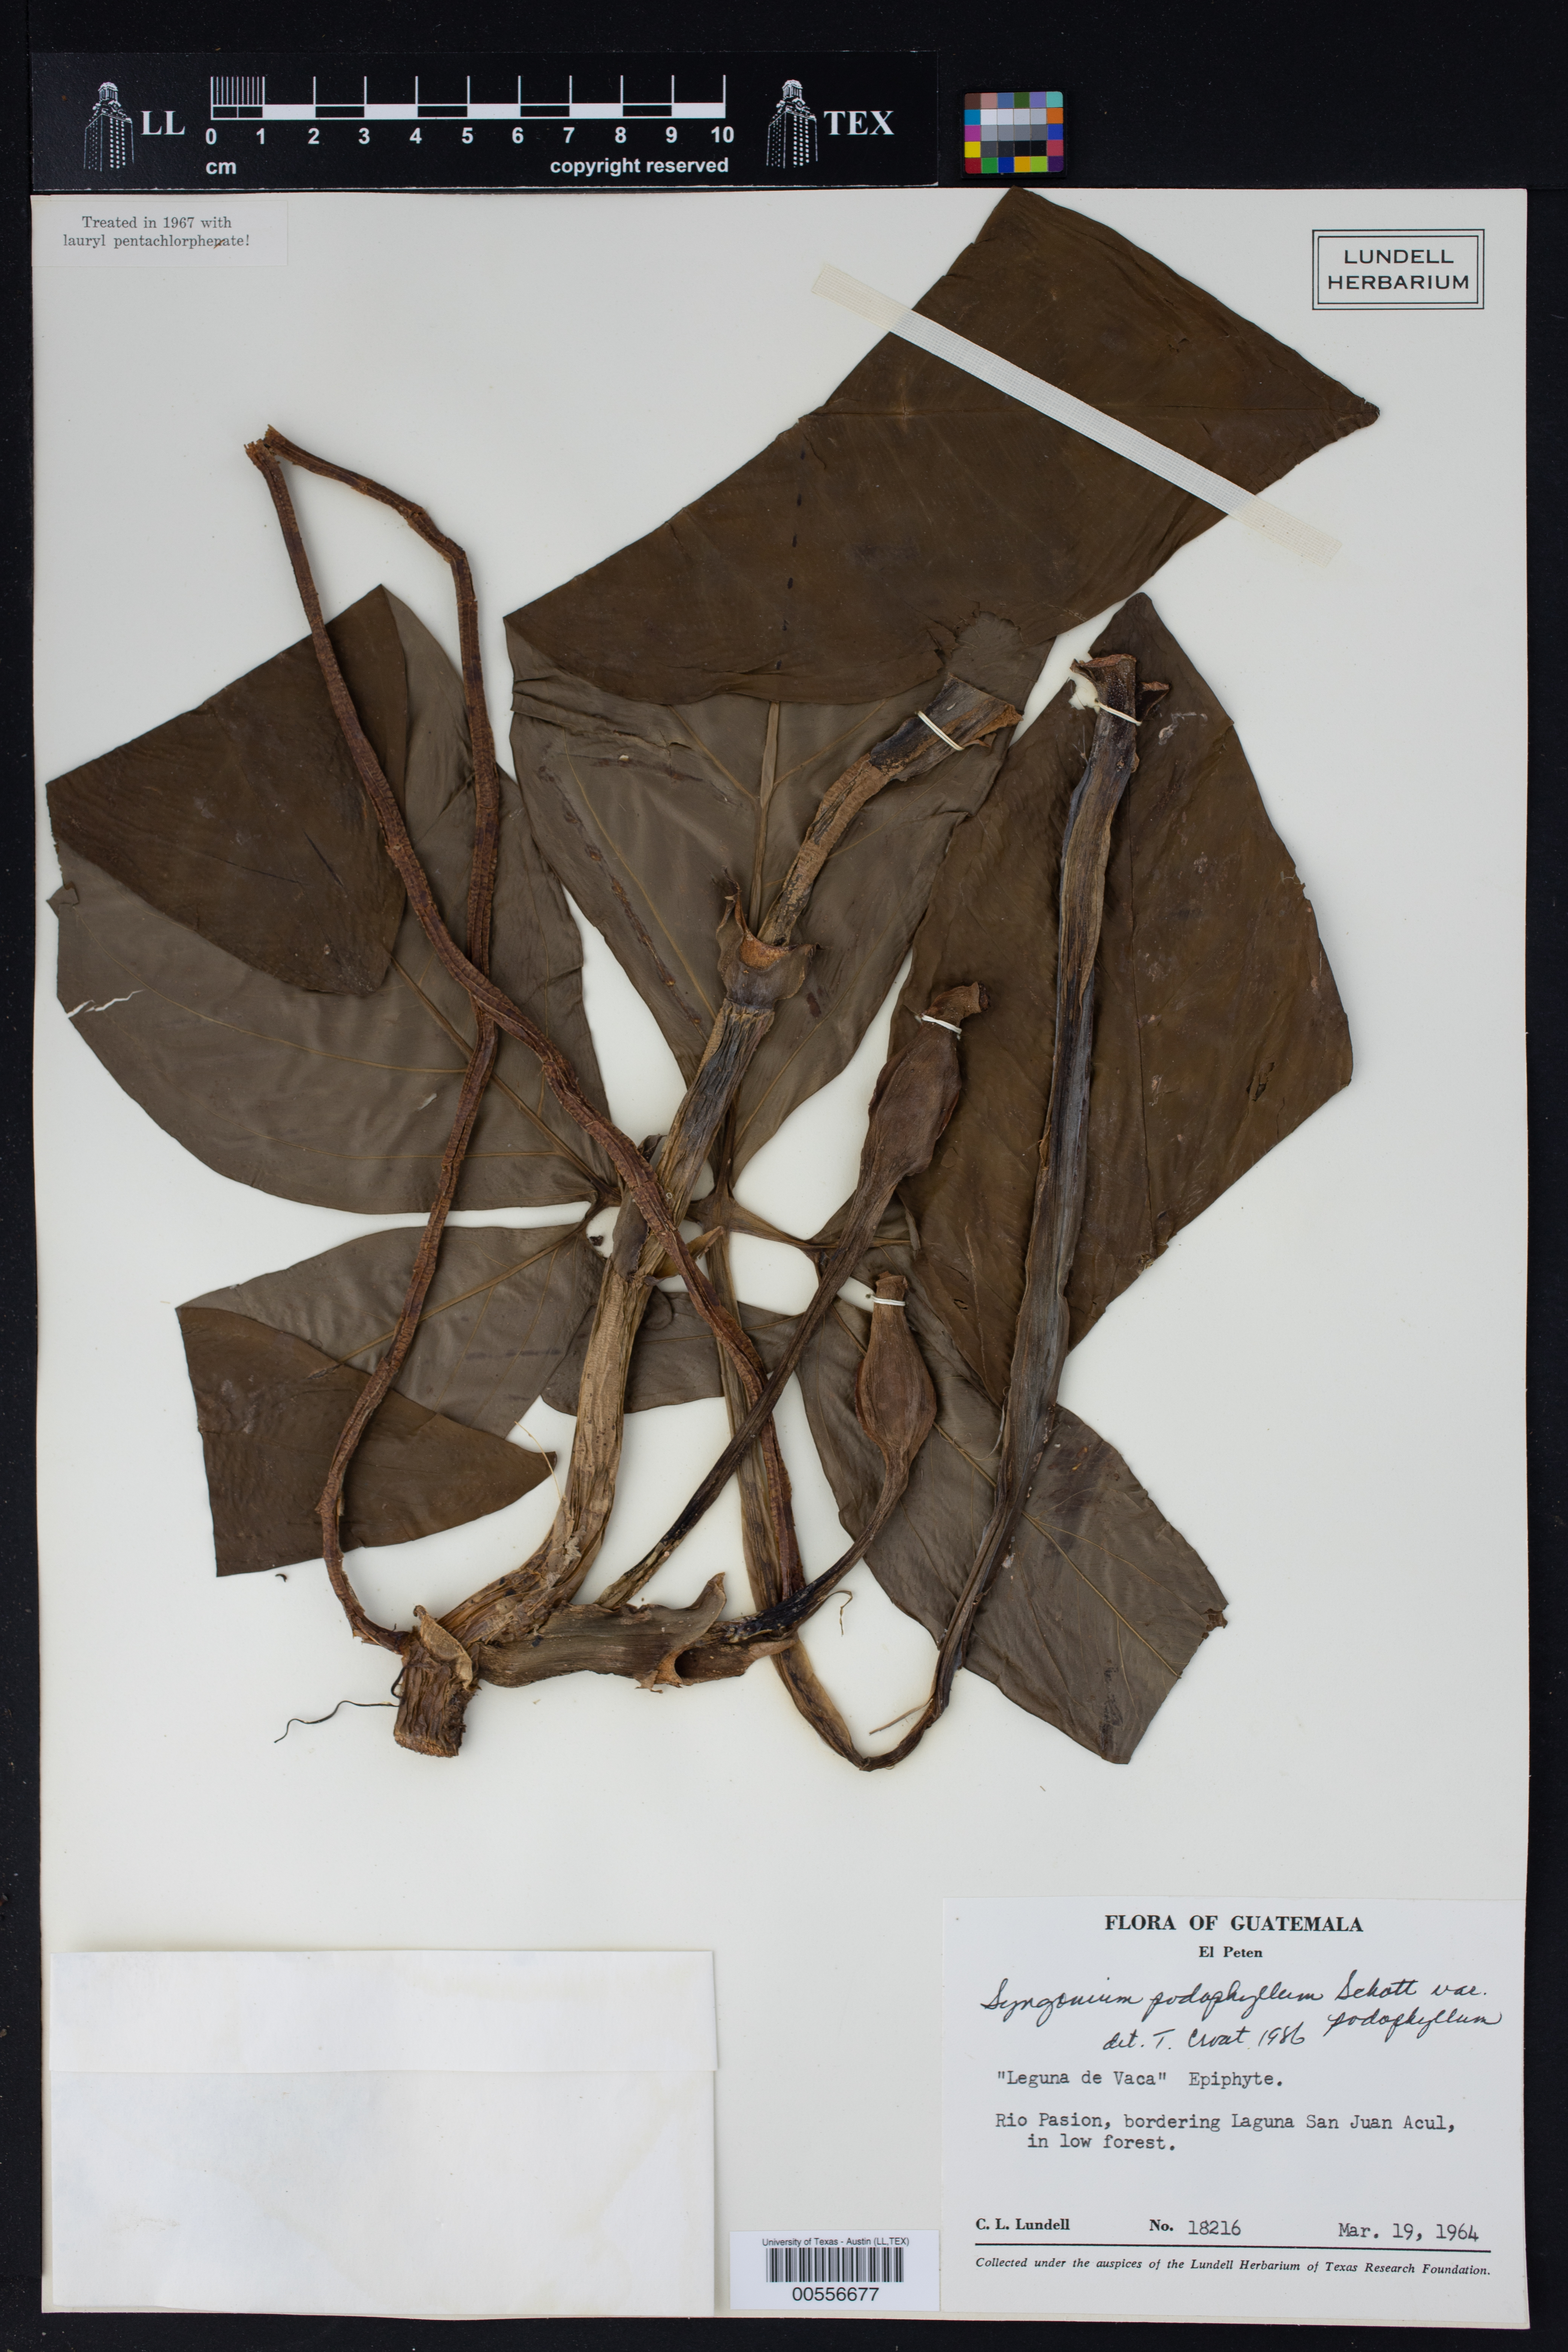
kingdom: Plantae
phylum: Tracheophyta
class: Liliopsida
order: Alismatales
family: Araceae
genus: Syngonium
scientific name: Syngonium podophyllum
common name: American evergreen
